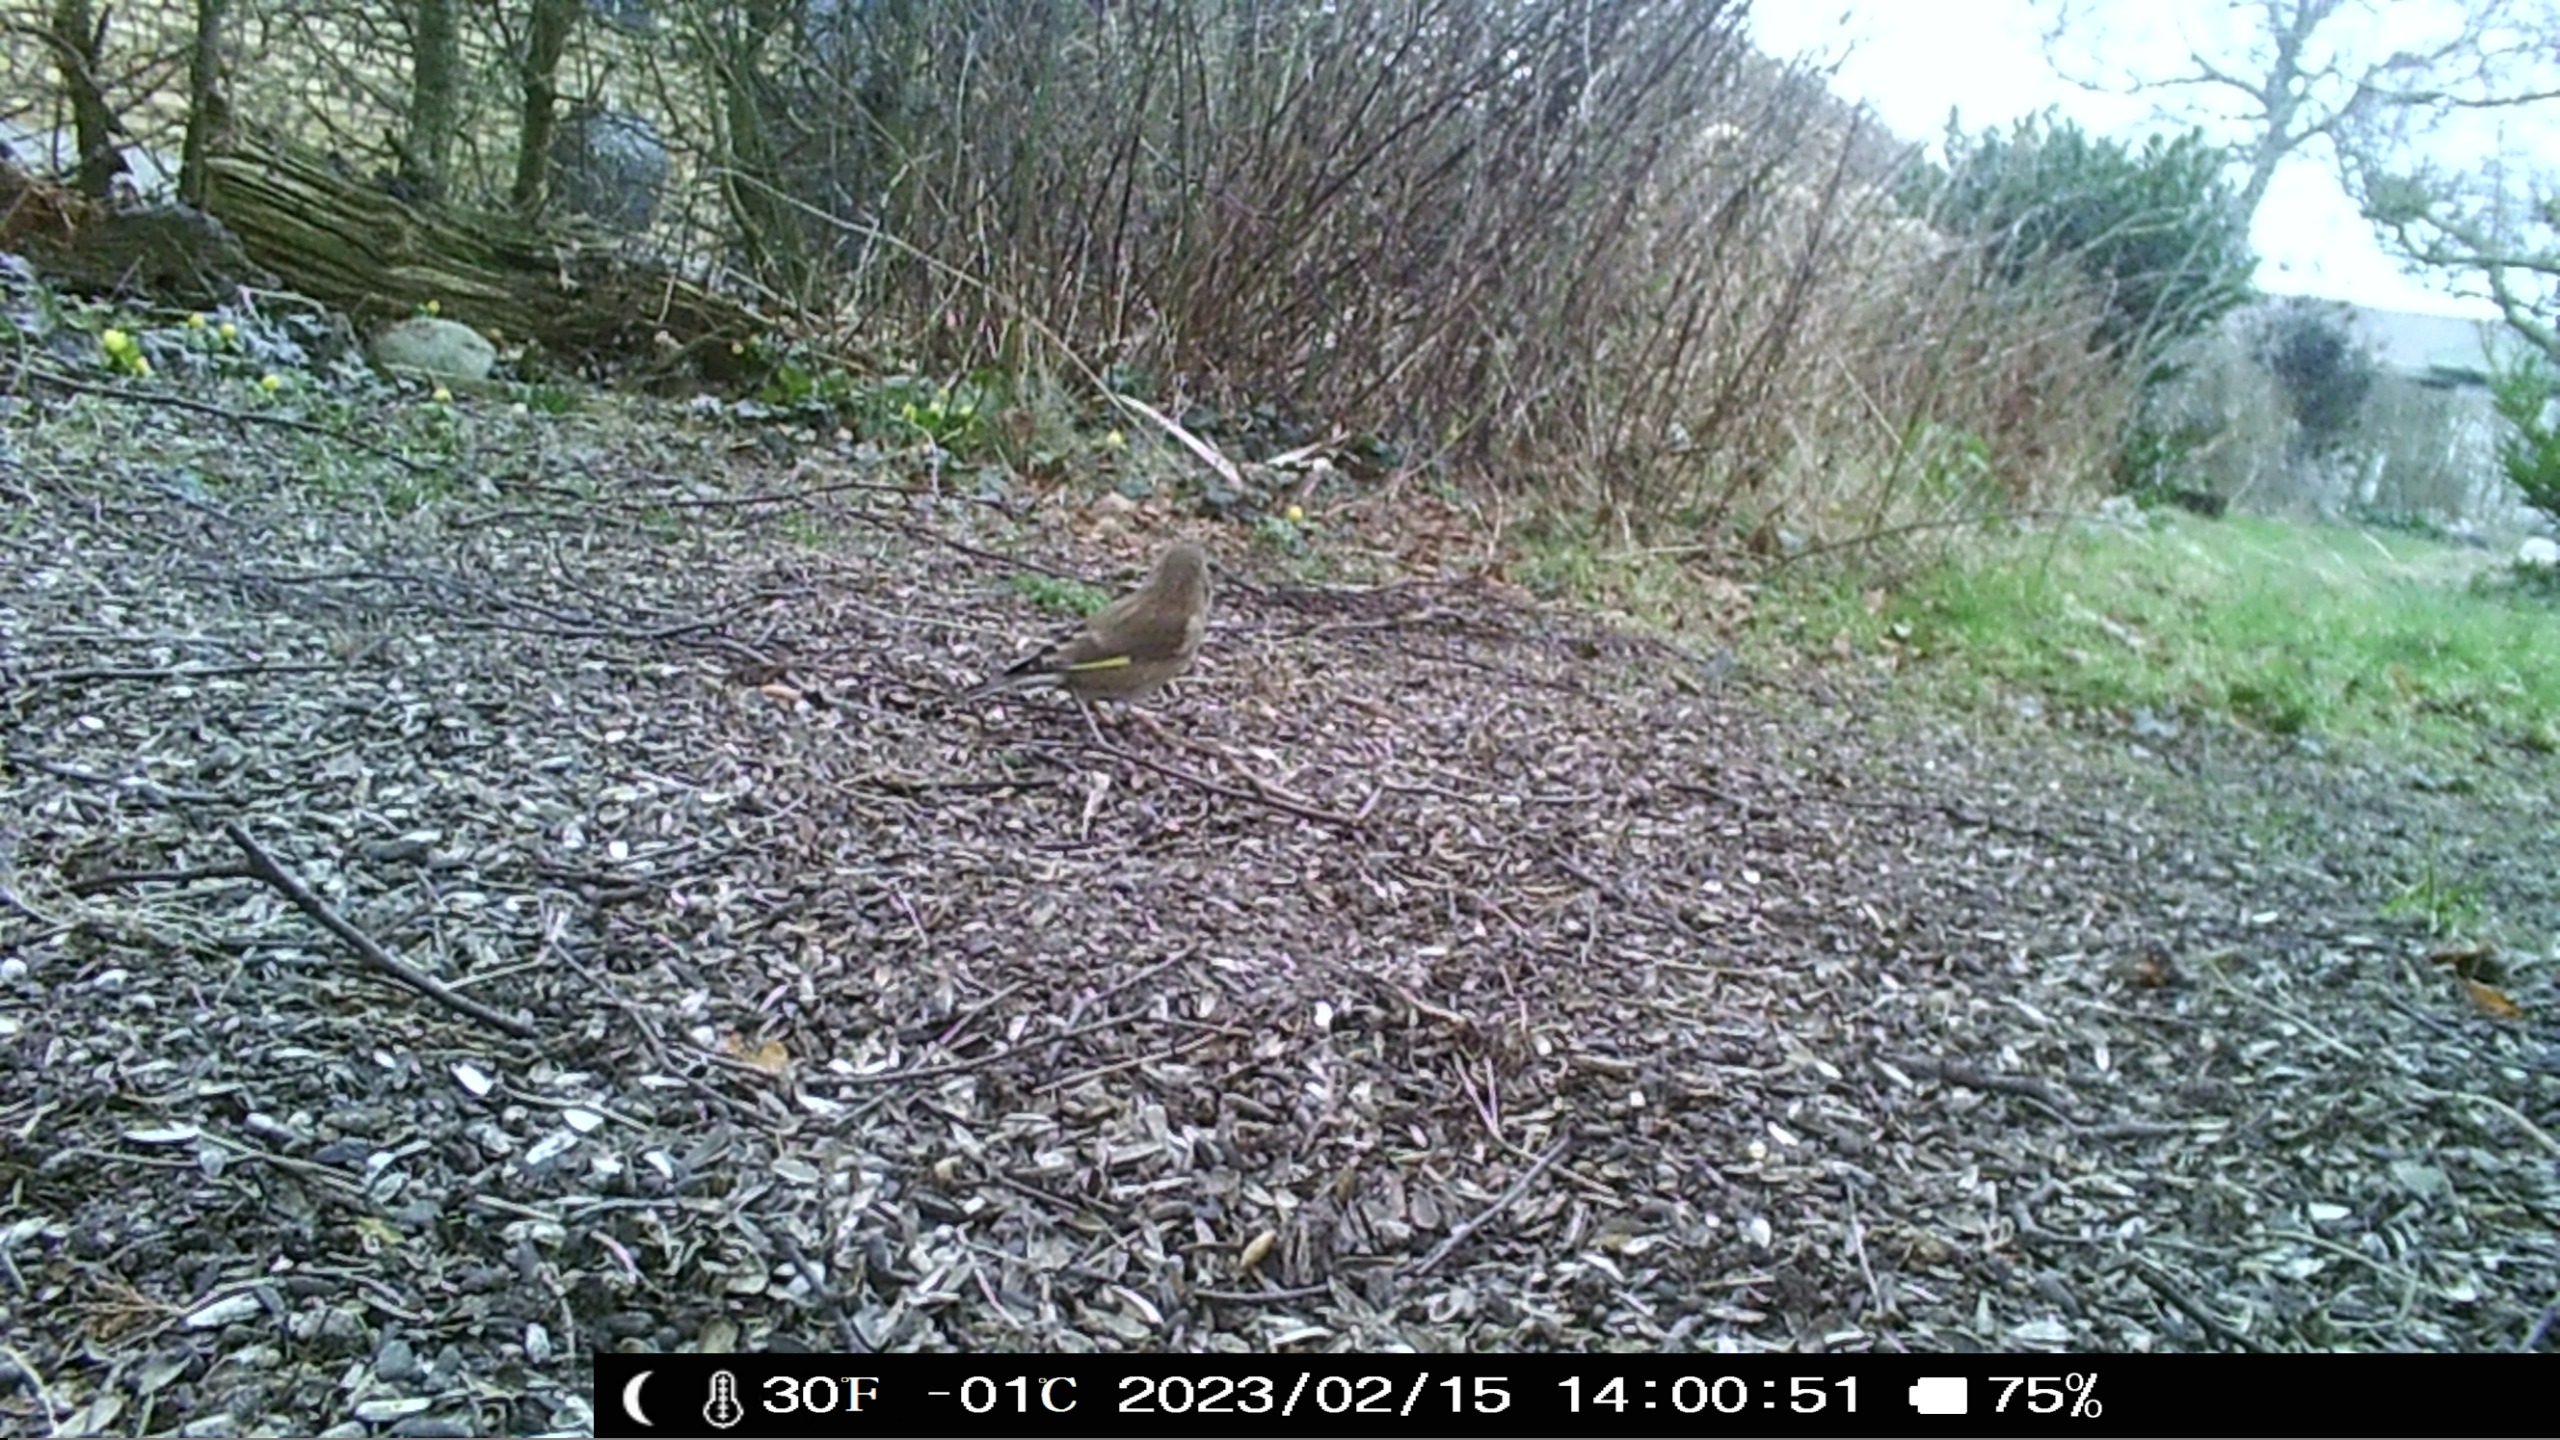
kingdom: Plantae
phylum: Tracheophyta
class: Liliopsida
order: Poales
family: Poaceae
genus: Chloris
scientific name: Chloris chloris
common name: Grønirisk
